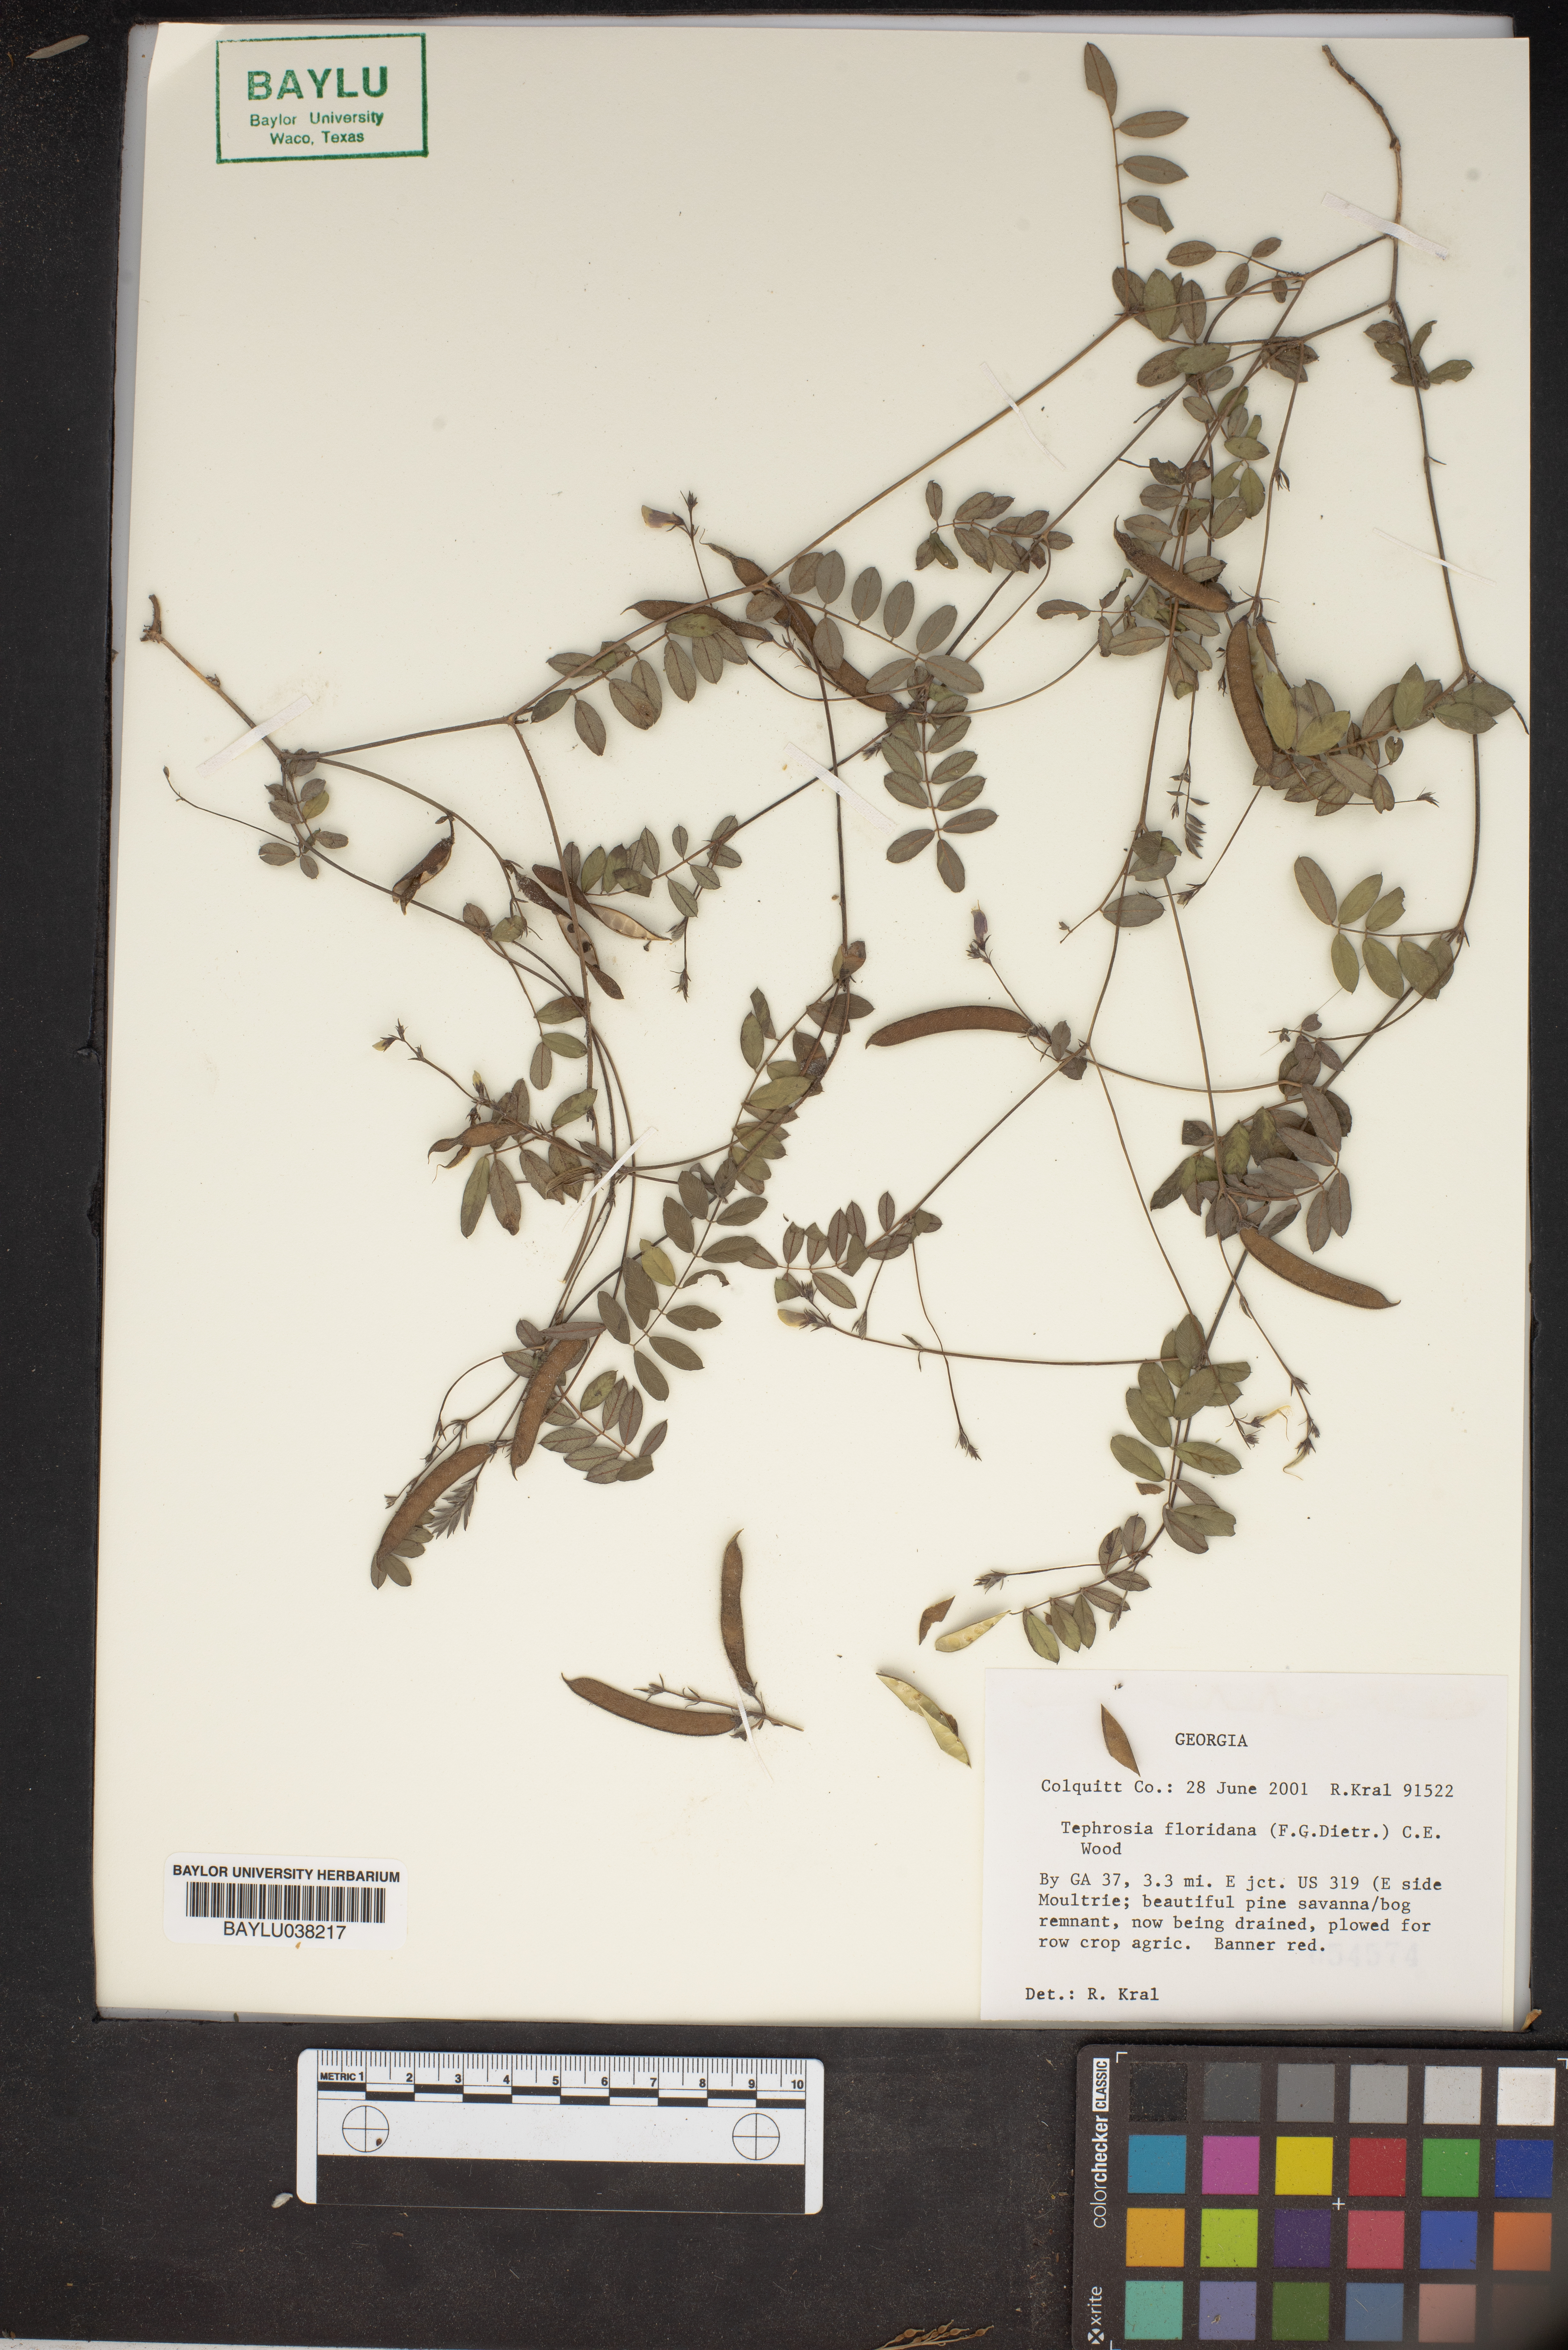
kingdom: Plantae
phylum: Tracheophyta
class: Magnoliopsida
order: Fabales
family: Fabaceae
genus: Tephrosia
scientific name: Tephrosia intermedia
